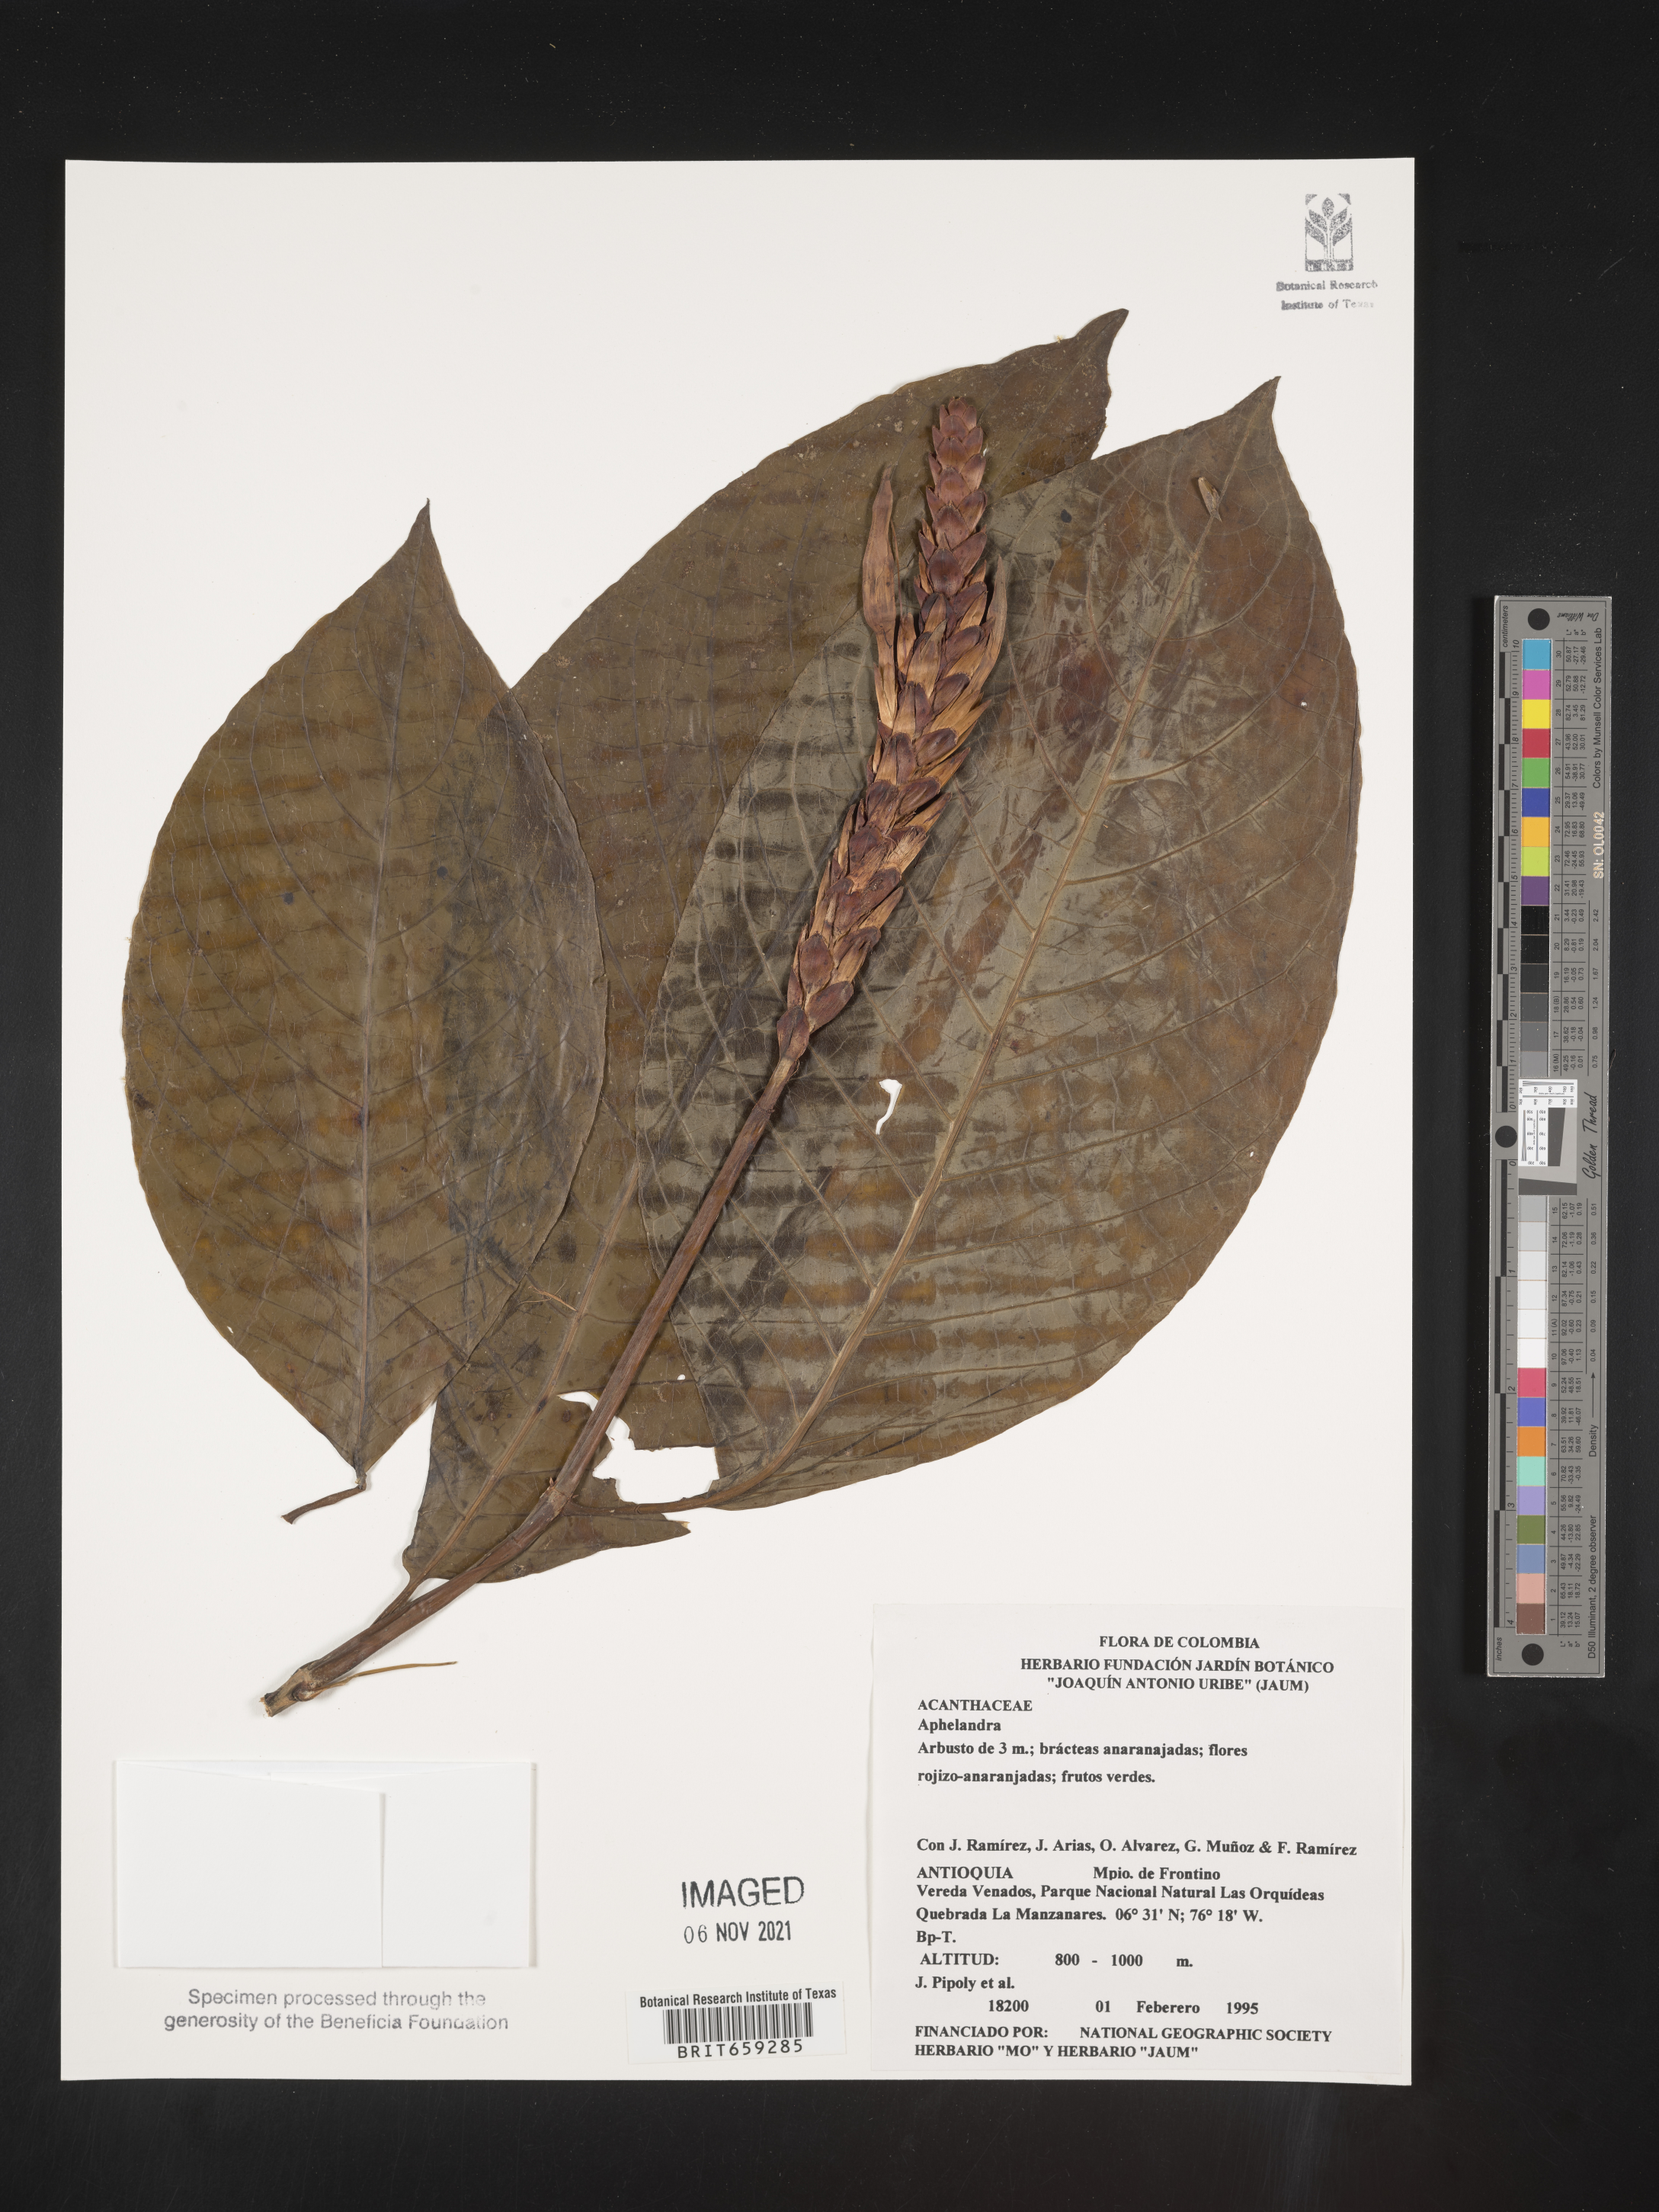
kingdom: Plantae
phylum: Tracheophyta
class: Magnoliopsida
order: Lamiales
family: Acanthaceae
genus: Aphelandra
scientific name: Aphelandra
